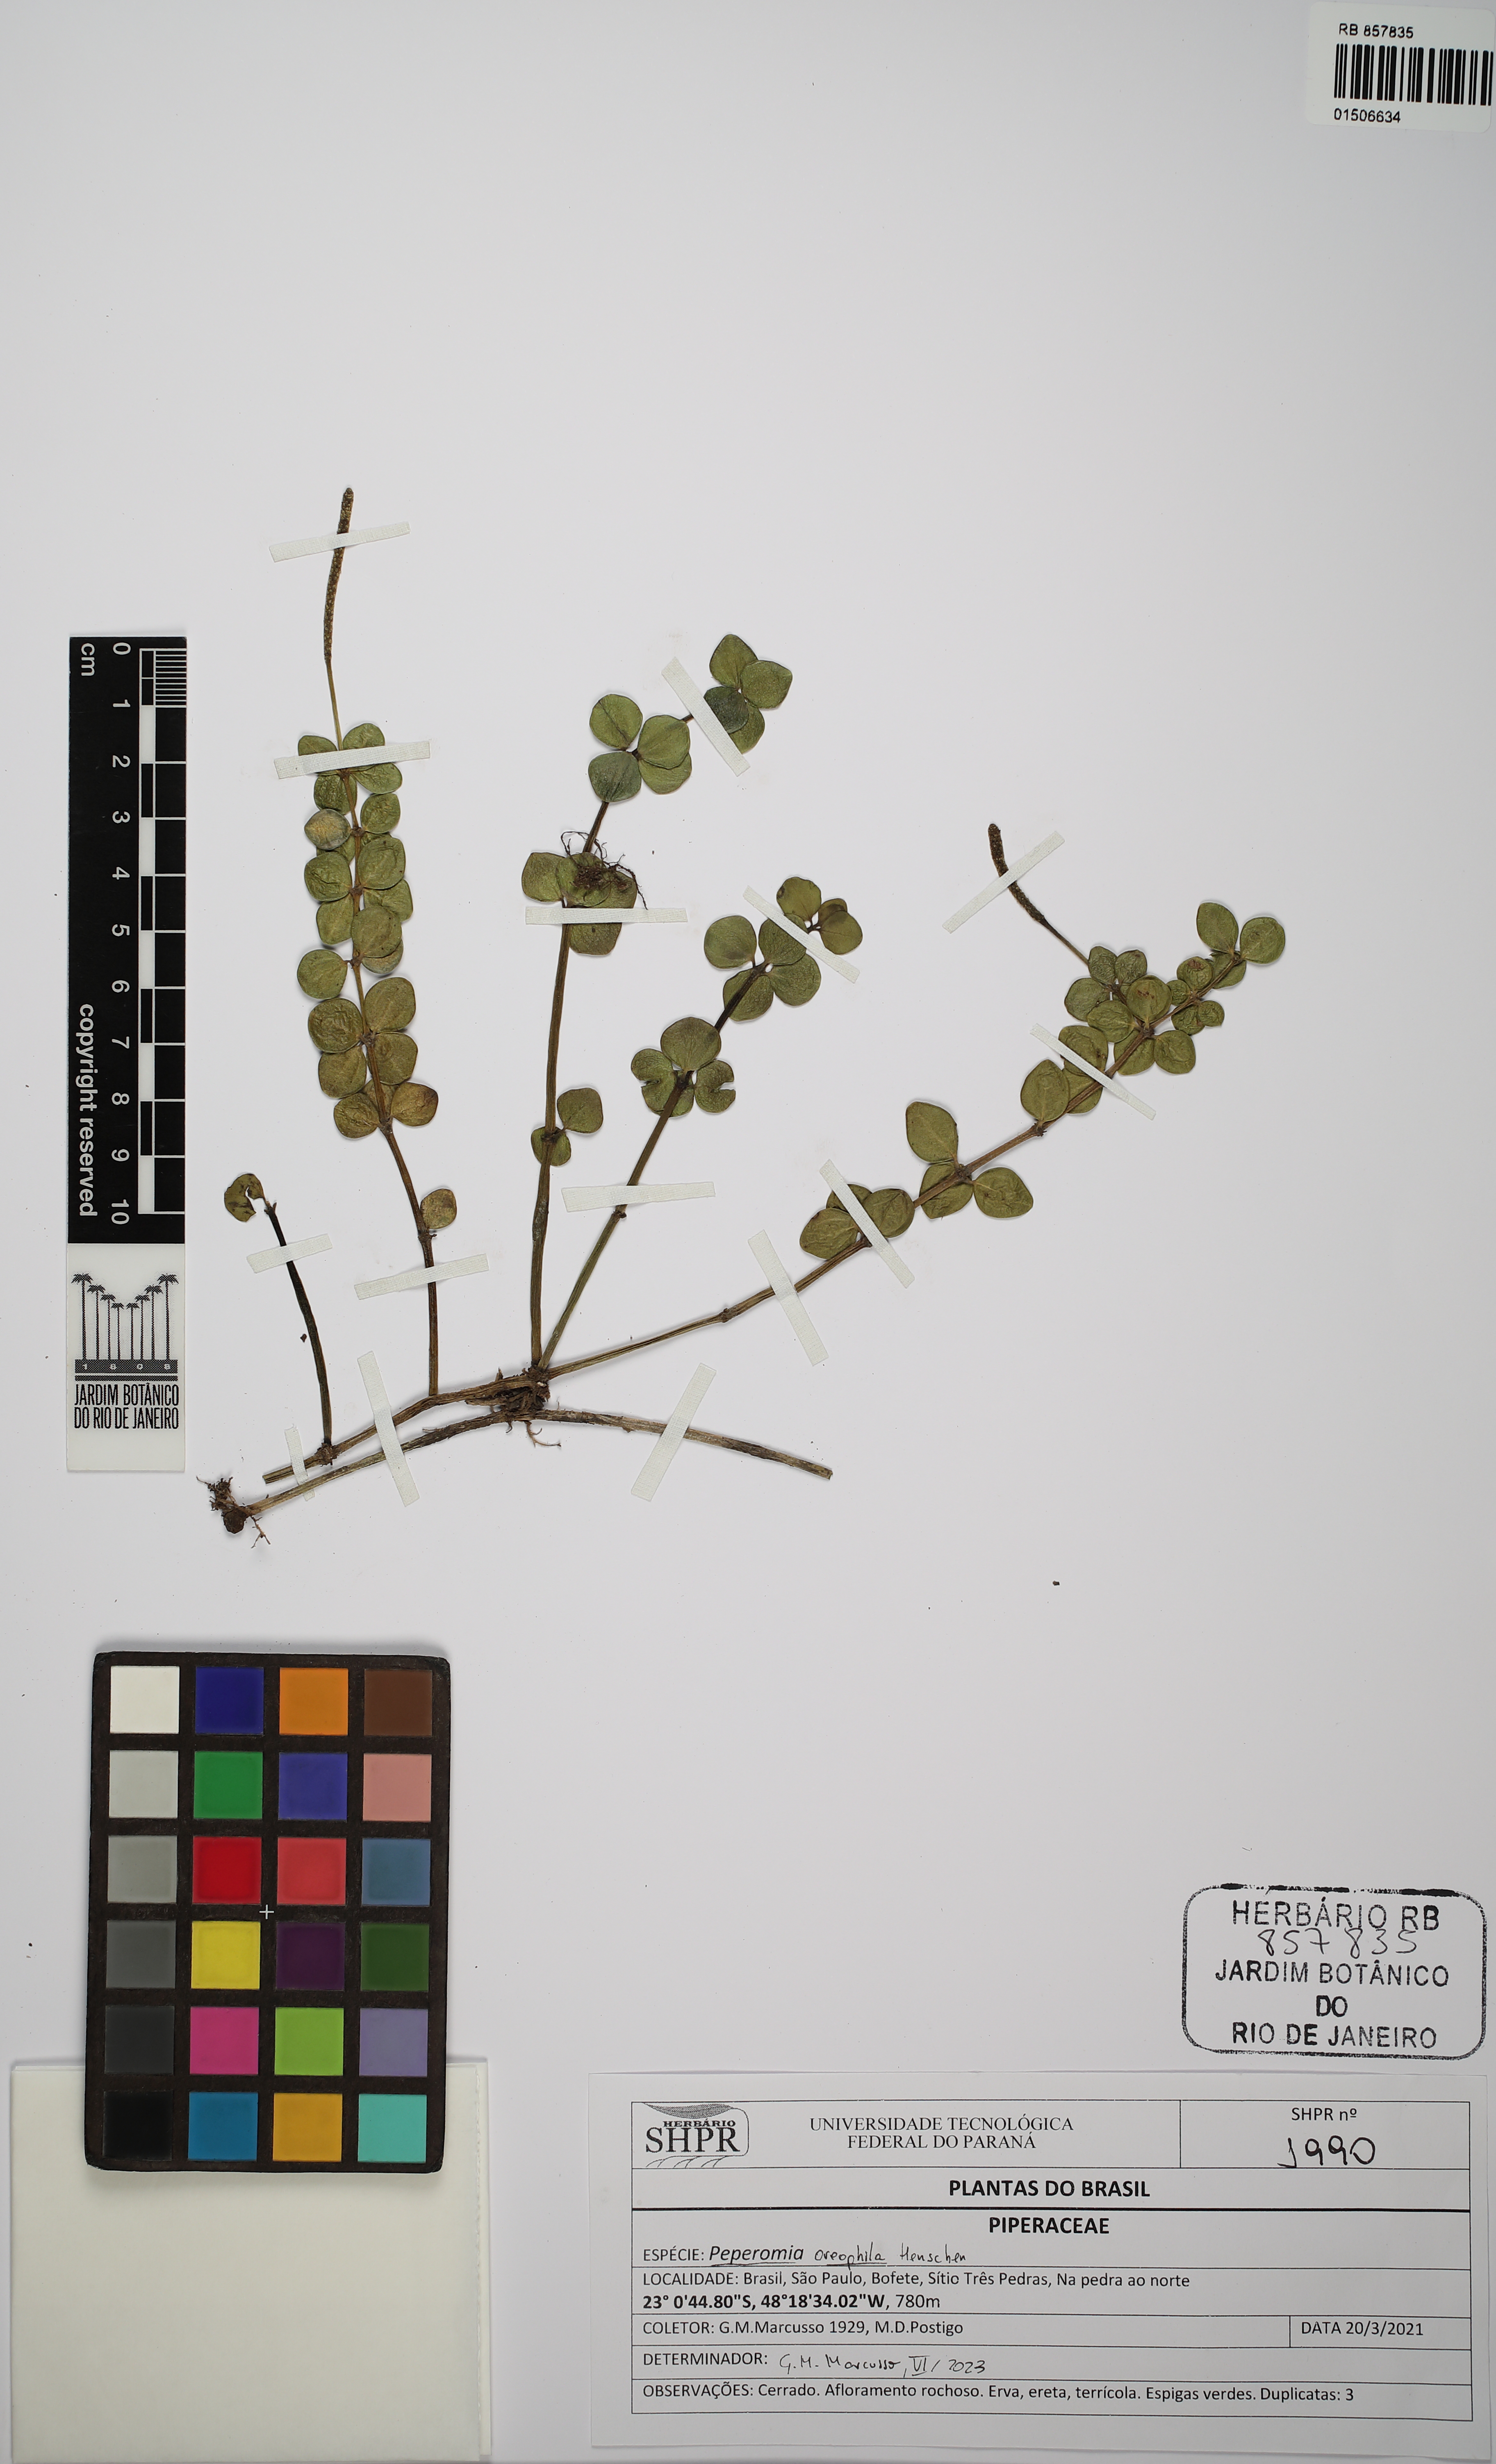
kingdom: Plantae
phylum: Tracheophyta
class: Magnoliopsida
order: Piperales
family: Piperaceae
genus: Peperomia
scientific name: Peperomia oreophila
